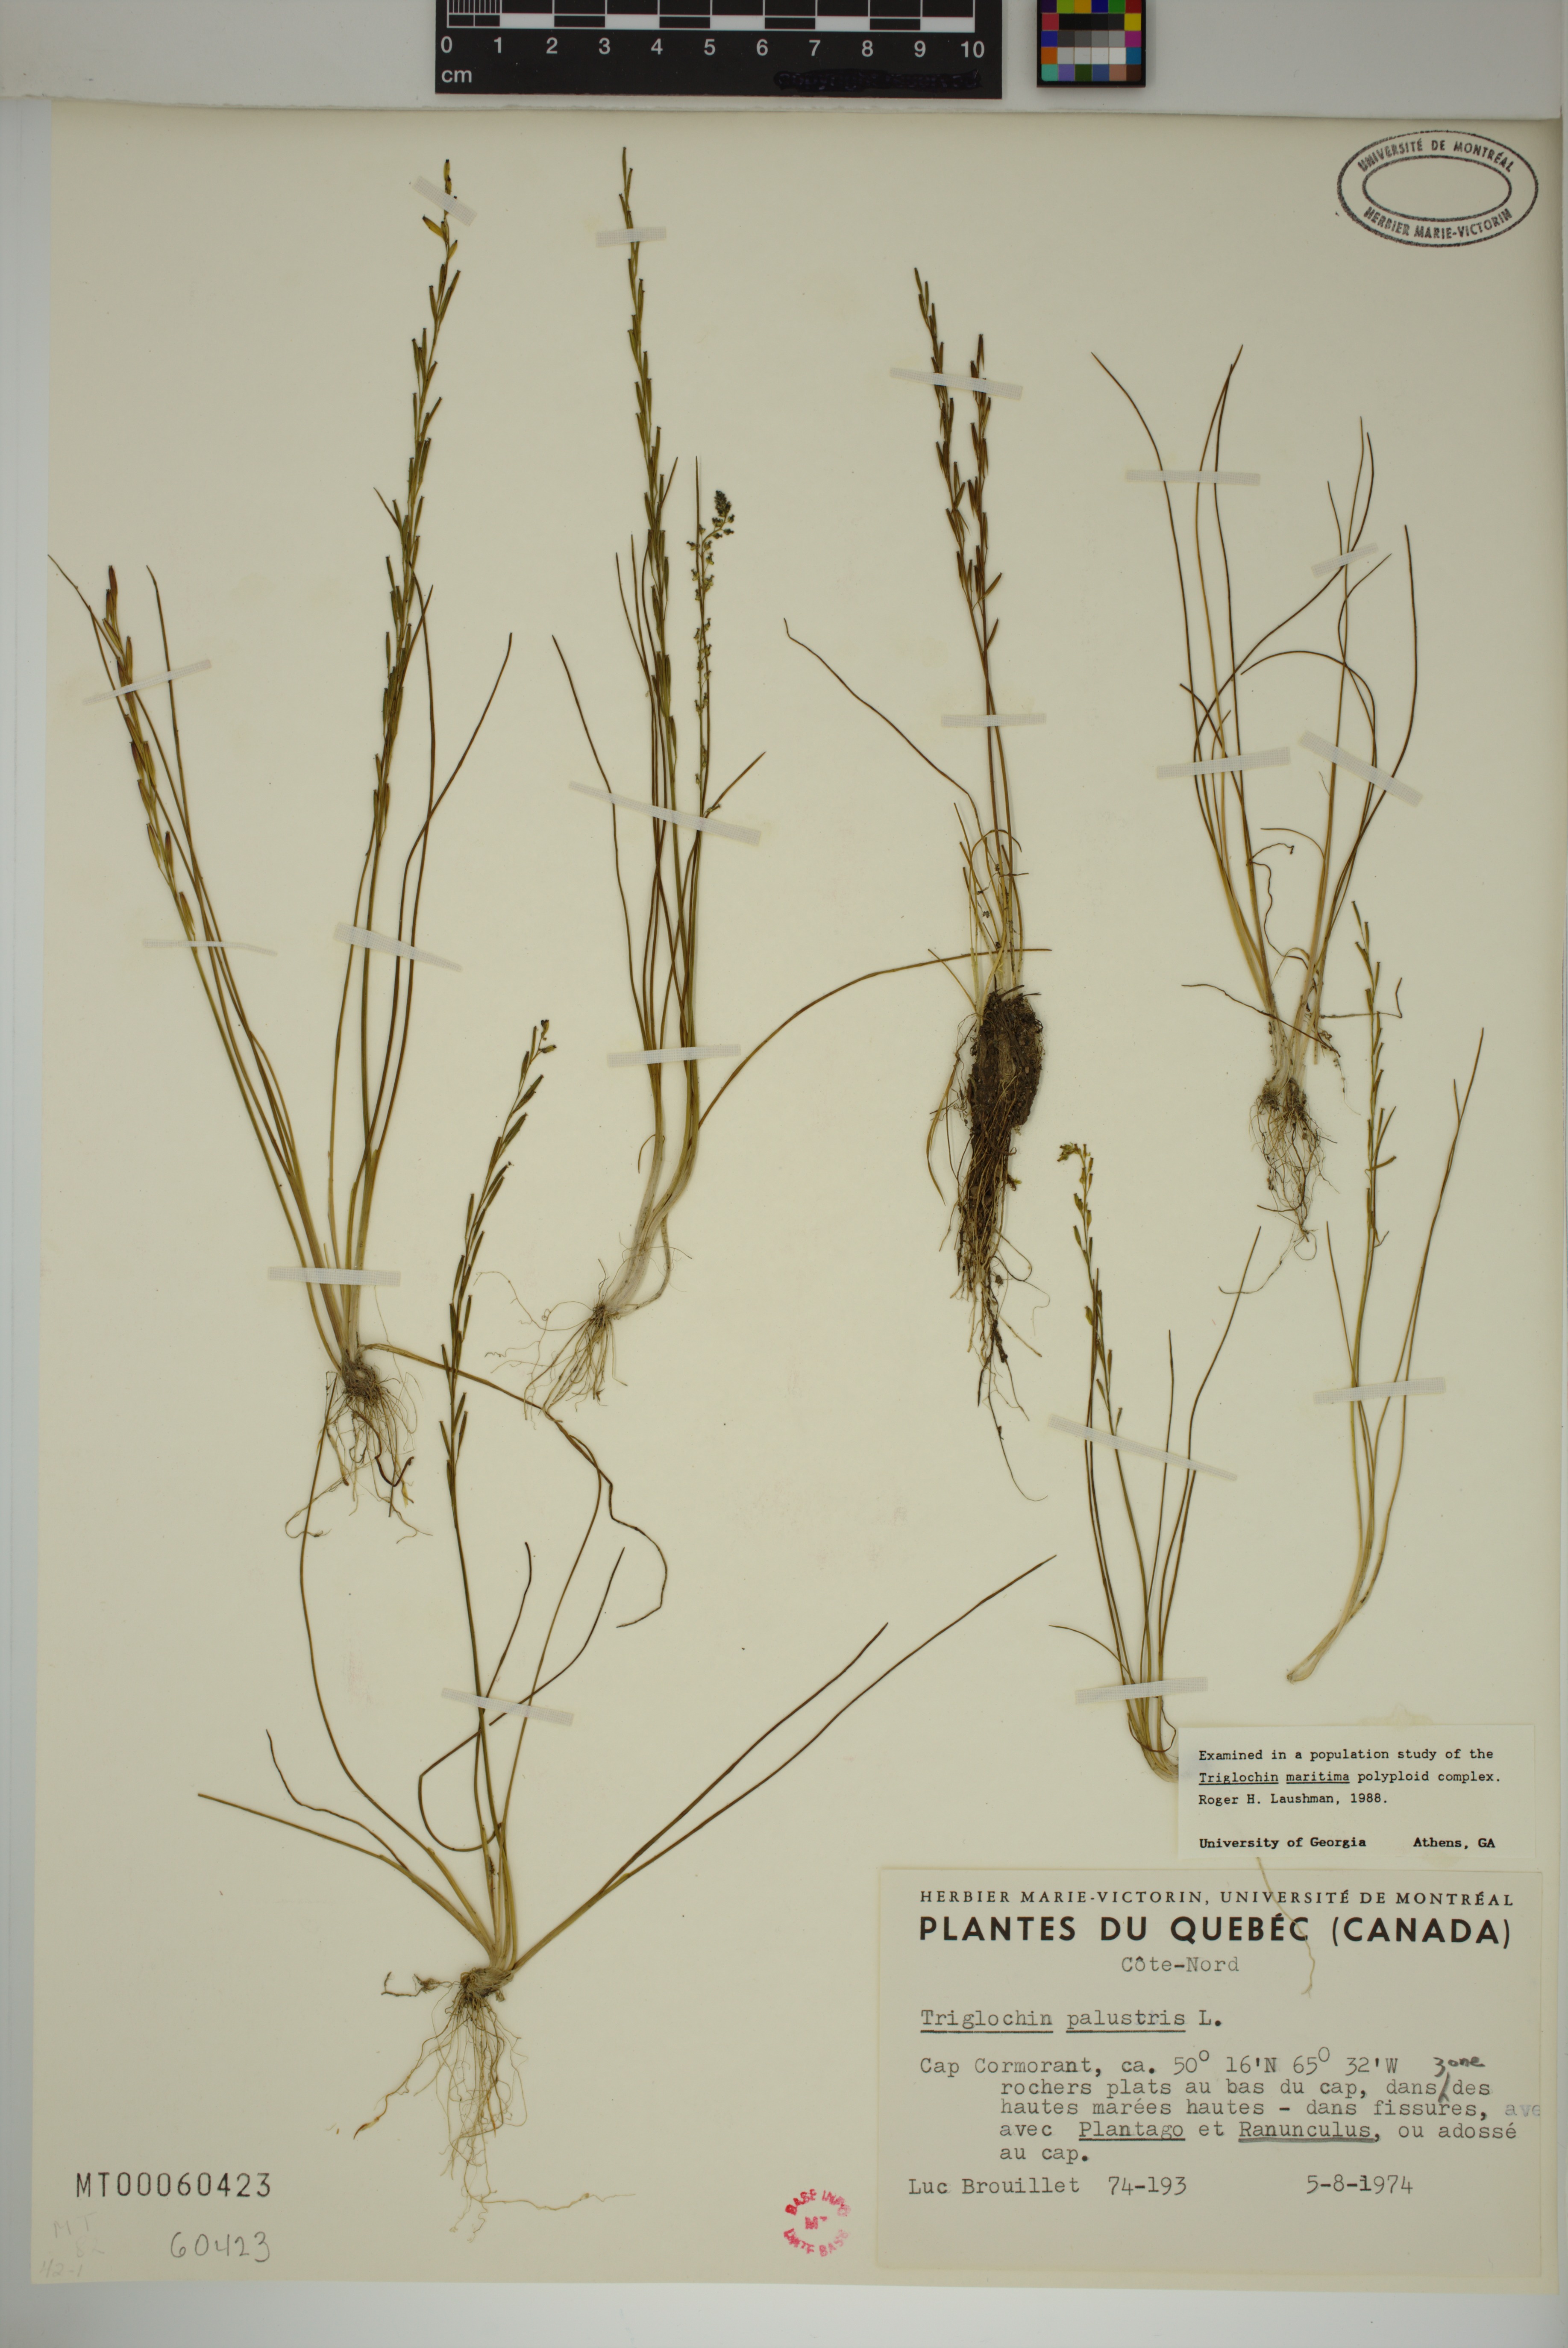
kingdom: Plantae
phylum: Tracheophyta
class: Liliopsida
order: Alismatales
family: Juncaginaceae
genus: Triglochin
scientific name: Triglochin palustris
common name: Marsh arrowgrass
